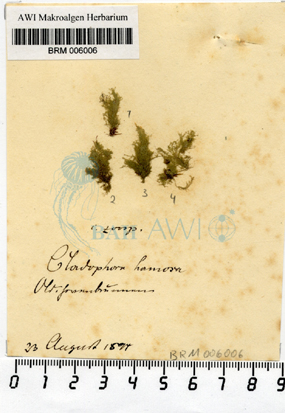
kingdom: Plantae
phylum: Chlorophyta
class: Ulvophyceae
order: Cladophorales
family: Cladophoraceae
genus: Cladophora
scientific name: Cladophora albida
